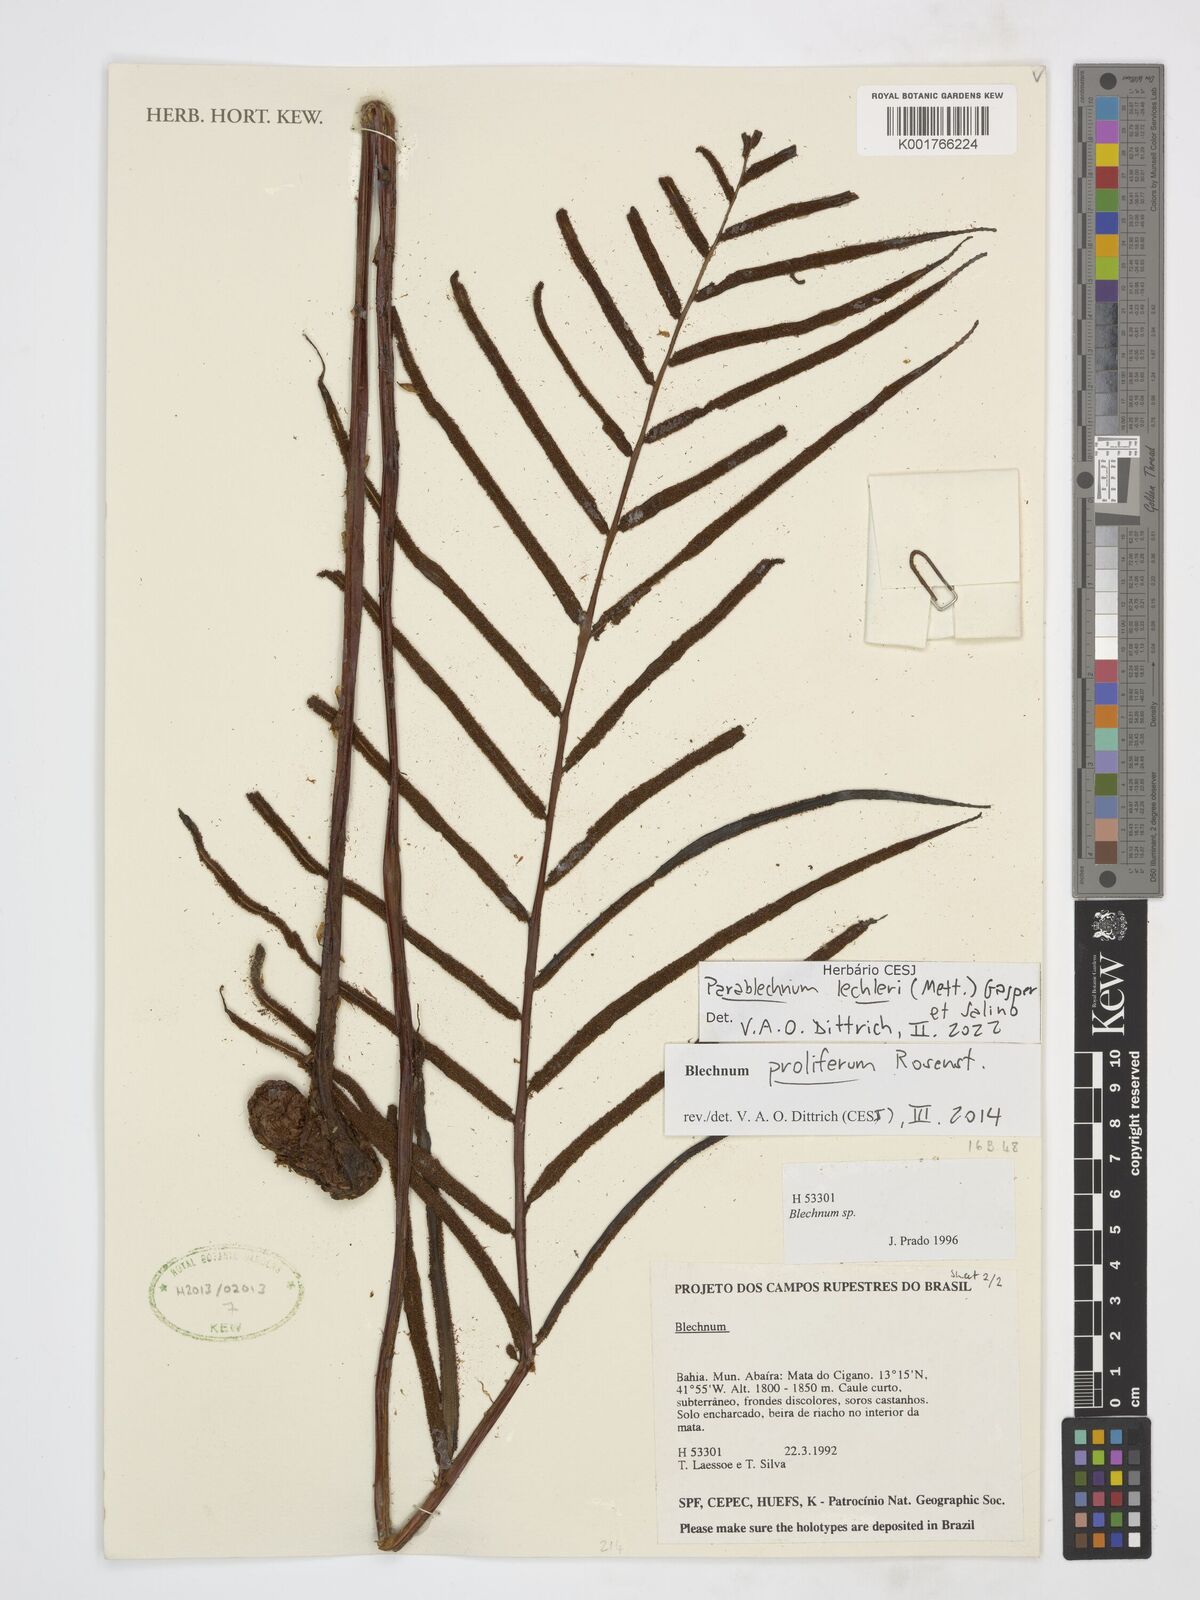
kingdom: Plantae
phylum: Tracheophyta
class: Polypodiopsida
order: Polypodiales
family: Blechnaceae
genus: Parablechnum
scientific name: Parablechnum lechleri
